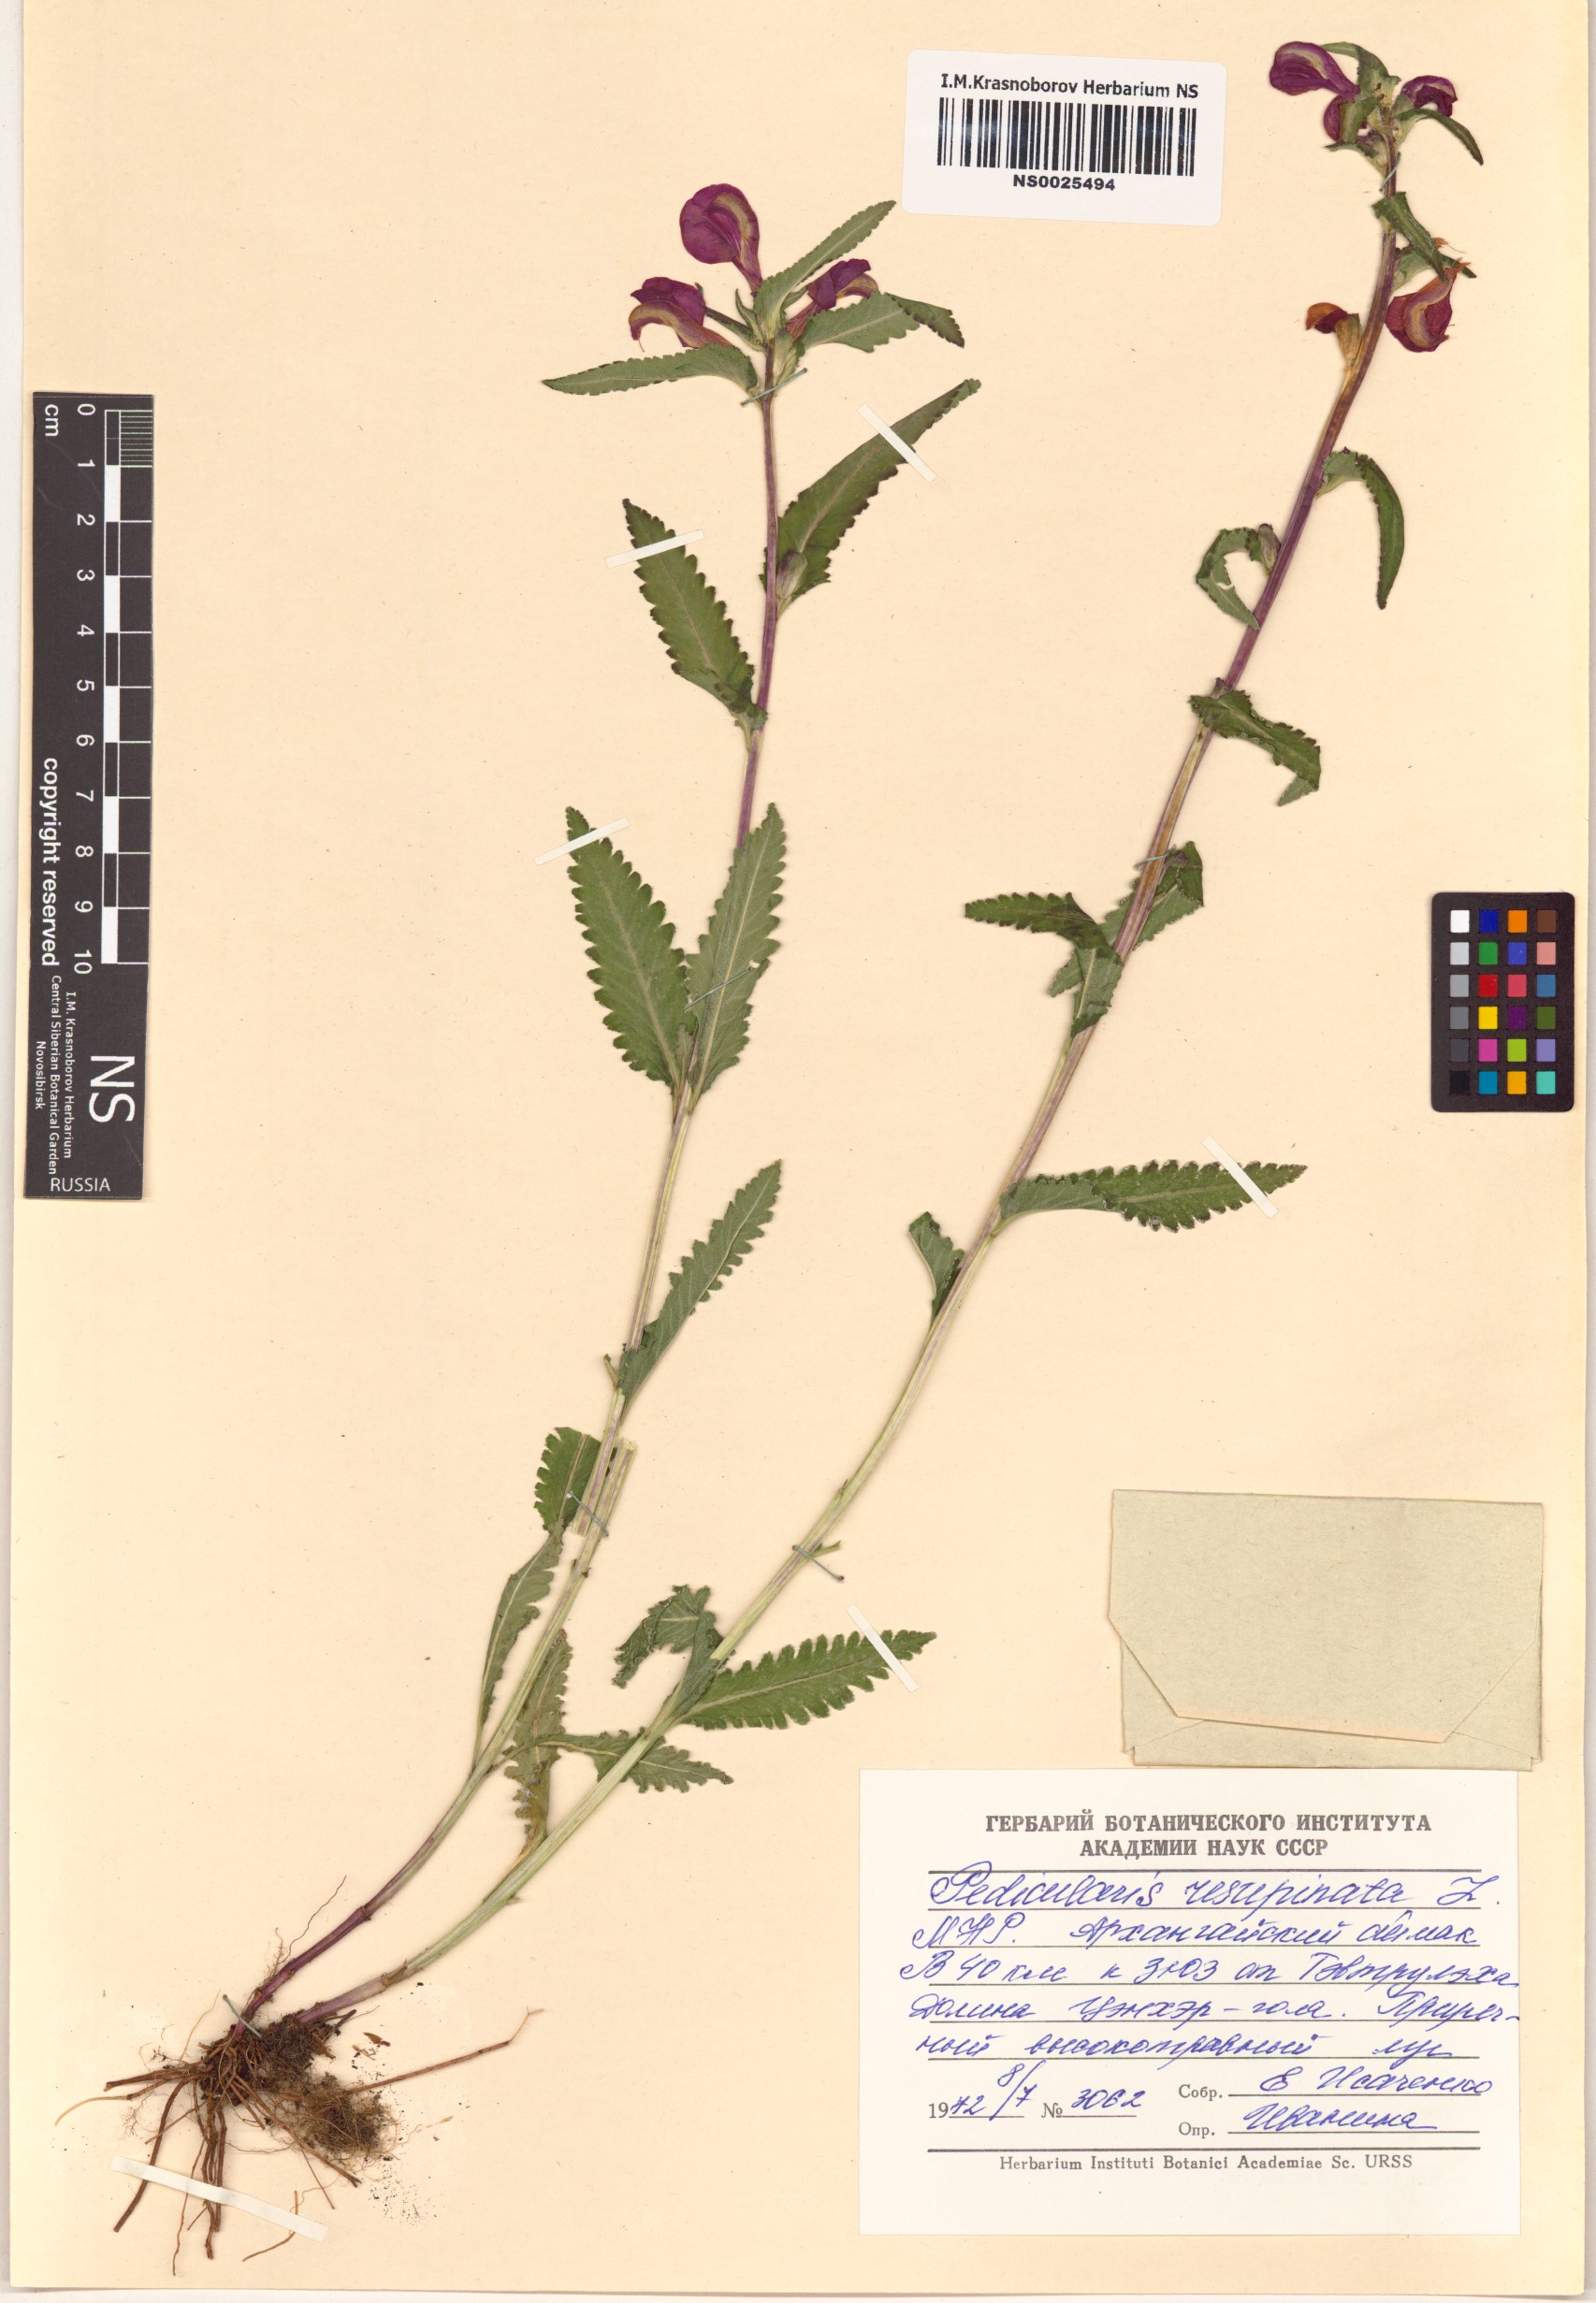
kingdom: Plantae
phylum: Tracheophyta
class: Magnoliopsida
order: Lamiales
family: Orobanchaceae
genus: Pedicularis
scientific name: Pedicularis resupinata
